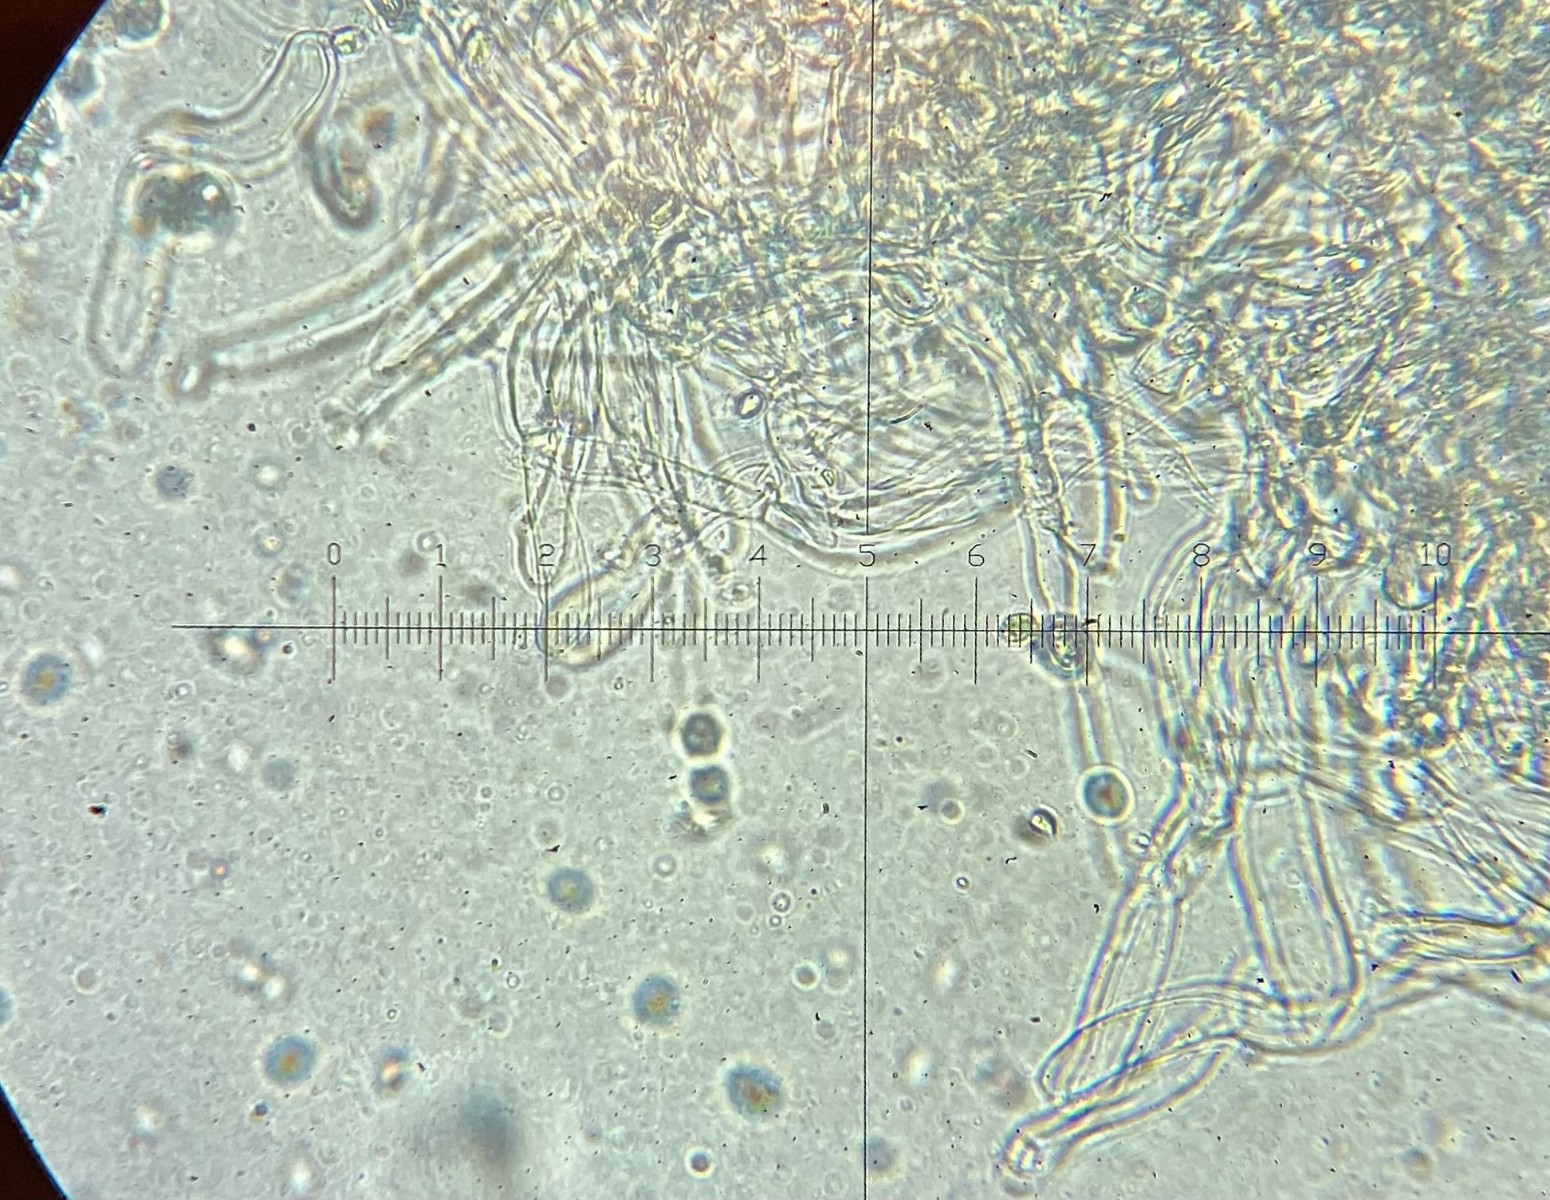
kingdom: Fungi
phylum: Basidiomycota
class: Agaricomycetes
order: Agaricales
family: Hygrophoraceae
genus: Cuphophyllus
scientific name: Cuphophyllus pratensis
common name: bleg vokshat
